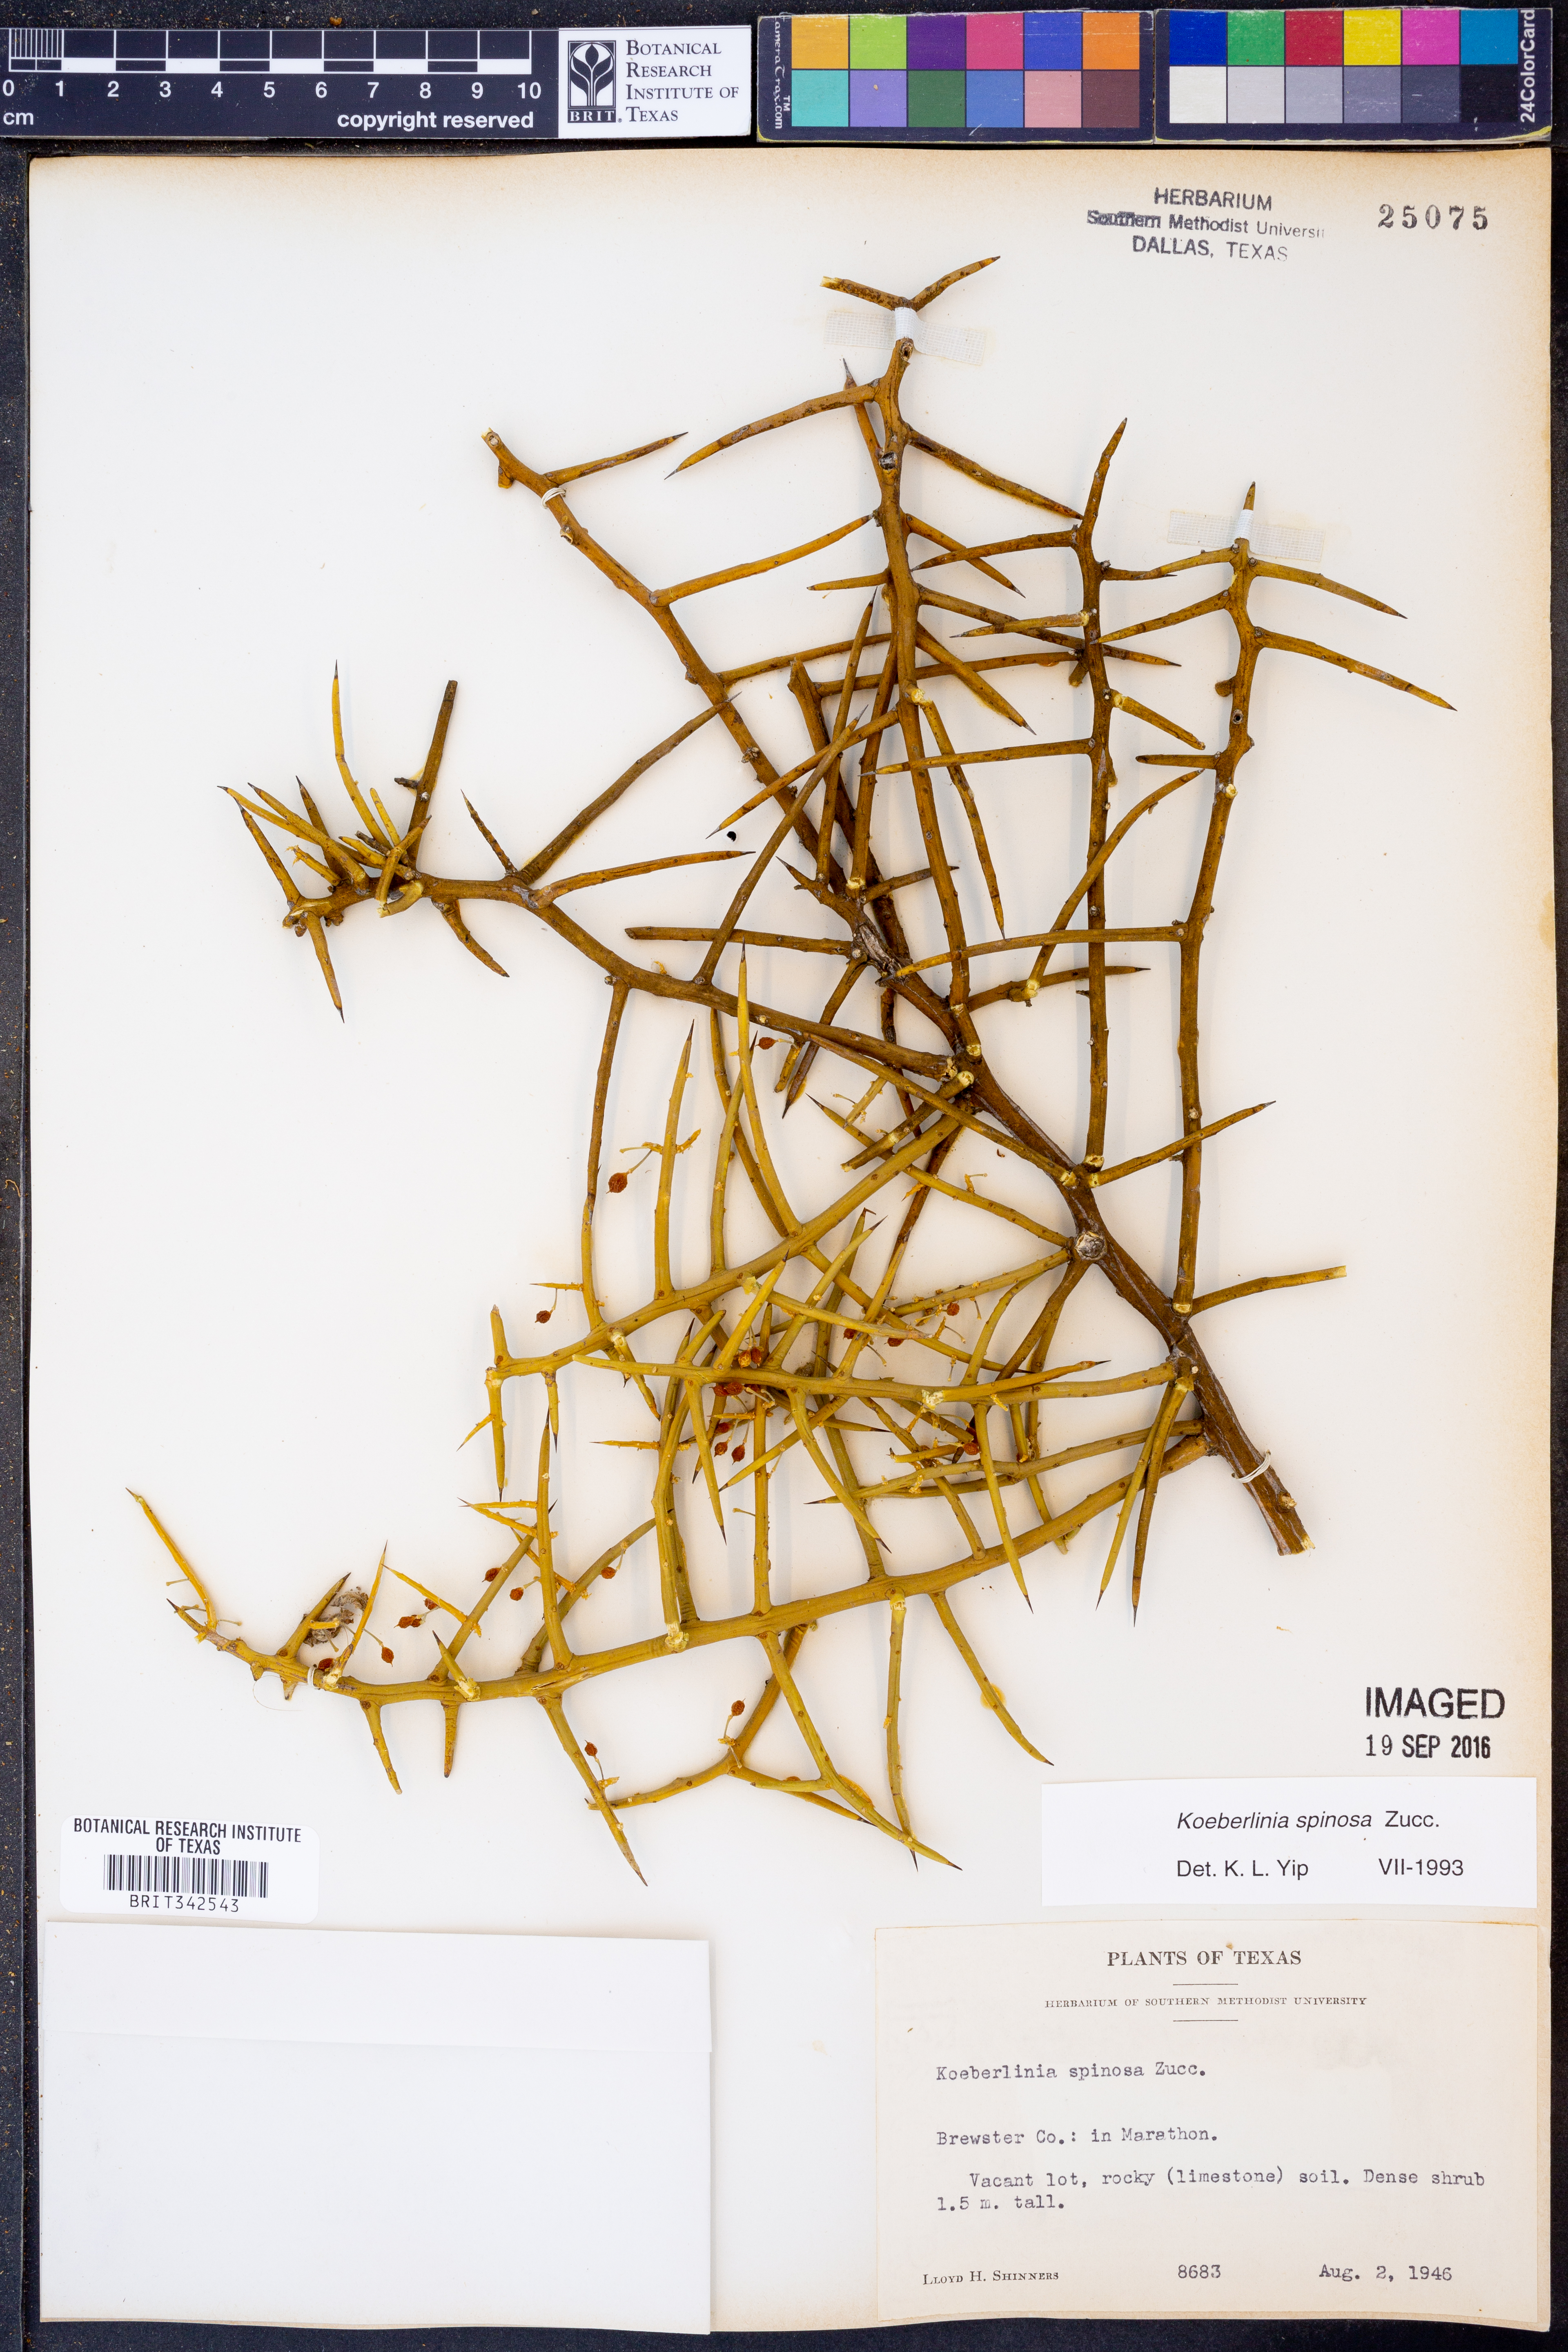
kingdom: Plantae
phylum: Tracheophyta
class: Magnoliopsida
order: Brassicales
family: Koeberliniaceae
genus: Koeberlinia
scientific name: Koeberlinia spinosa
